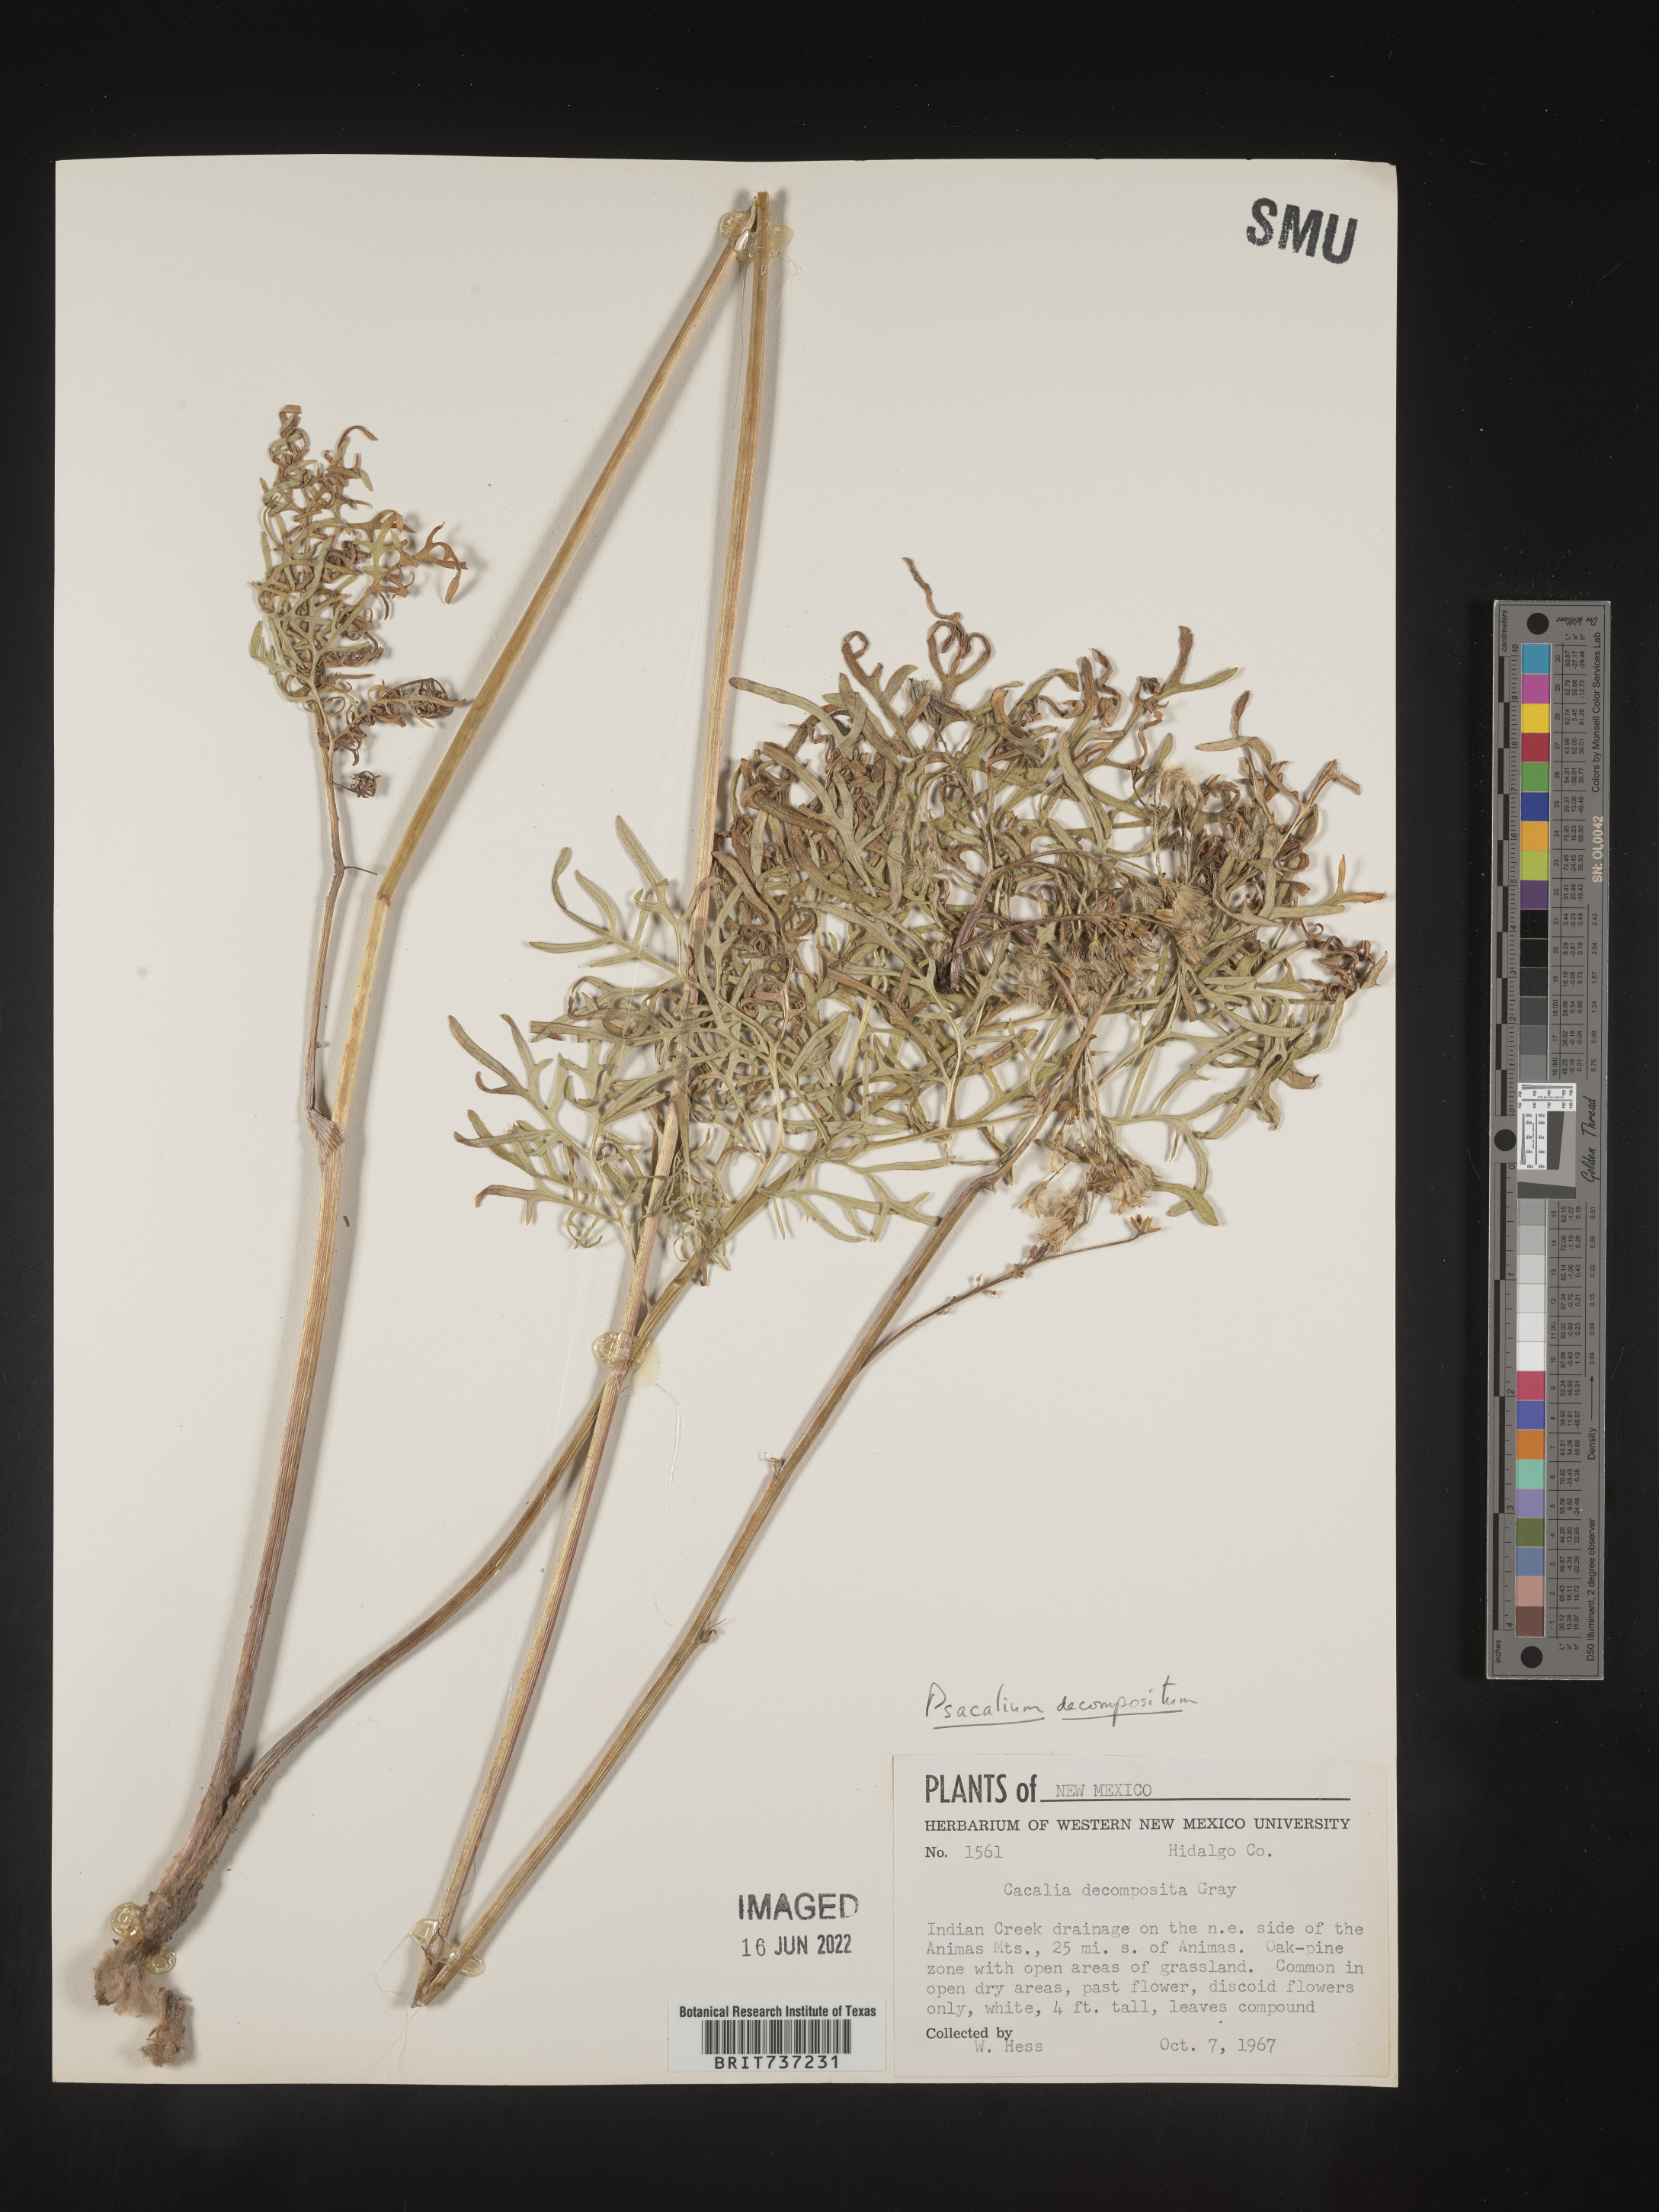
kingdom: Plantae
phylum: Tracheophyta
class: Magnoliopsida
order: Asterales
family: Asteraceae
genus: Psacalium
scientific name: Psacalium
